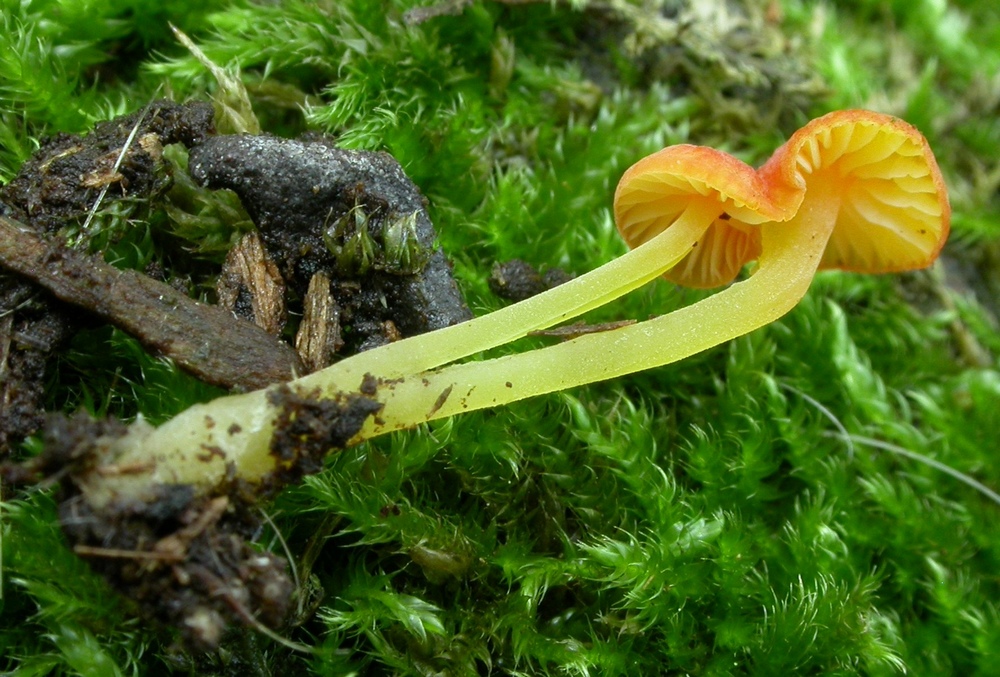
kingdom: Fungi
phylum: Basidiomycota
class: Agaricomycetes
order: Agaricales
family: Mycenaceae
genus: Mycena
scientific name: Mycena acicula
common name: orange huesvamp
